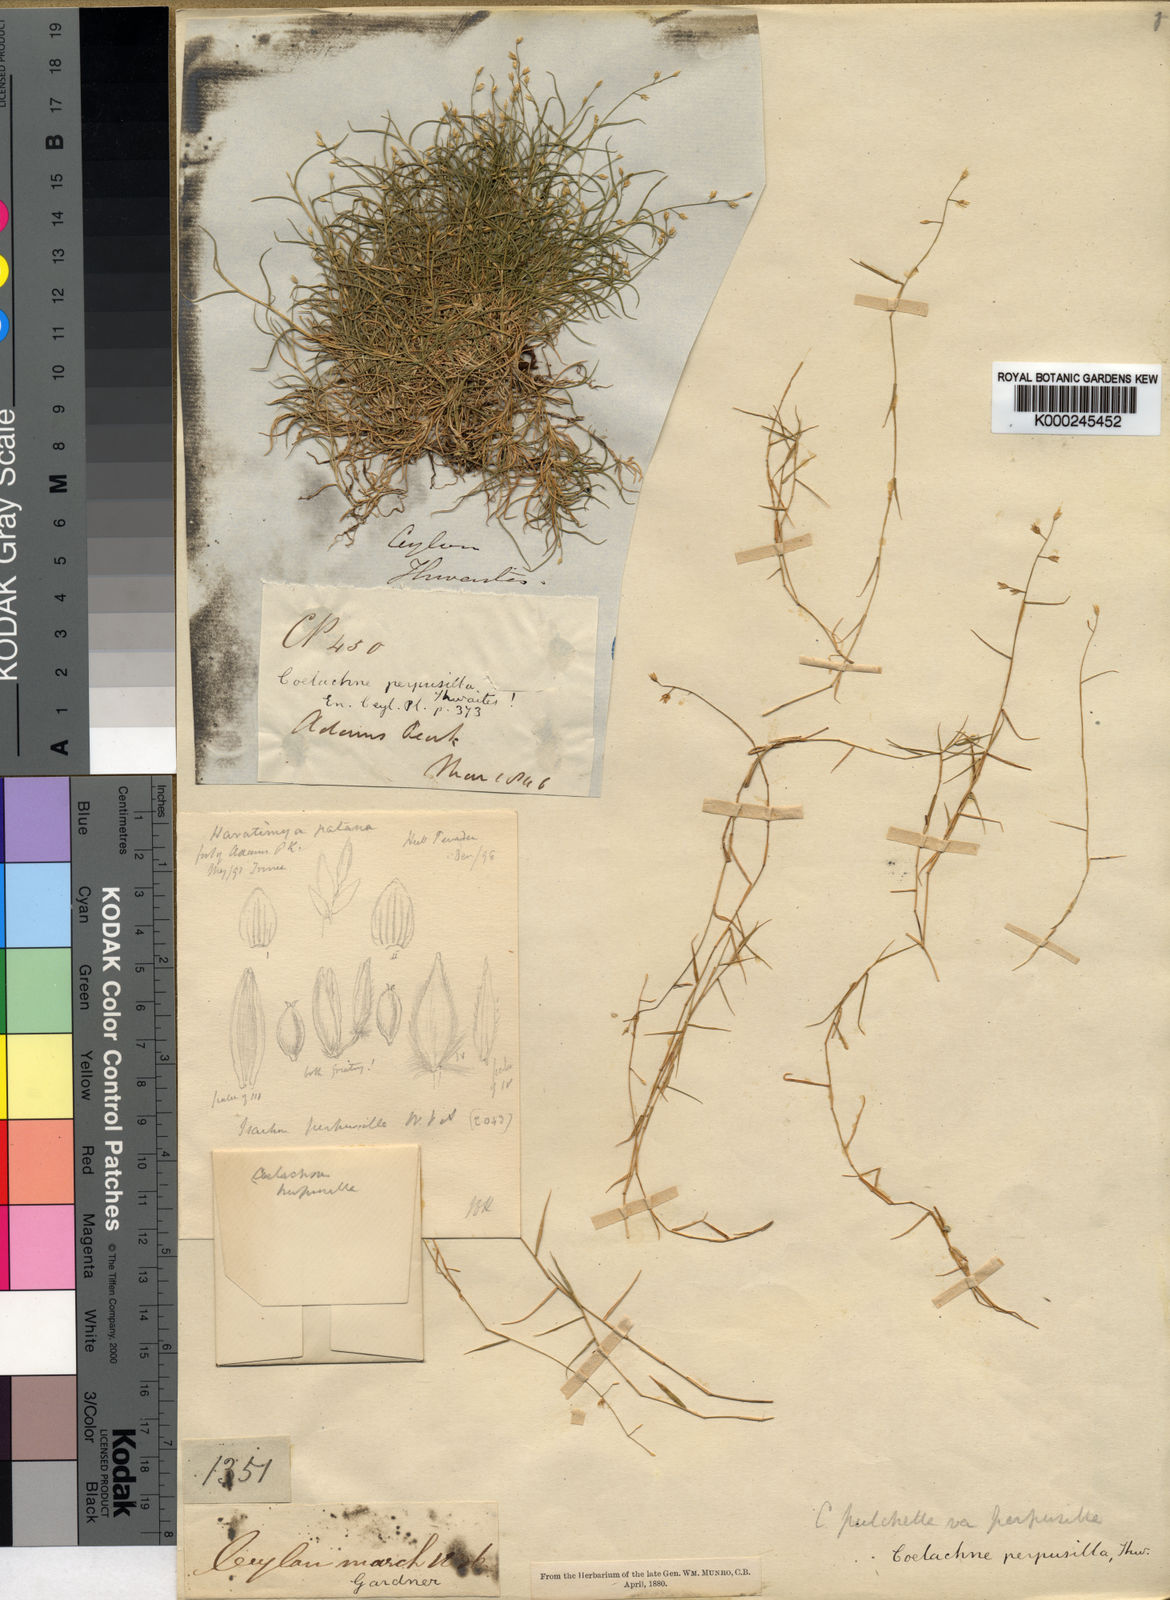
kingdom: Plantae
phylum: Tracheophyta
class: Liliopsida
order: Poales
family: Poaceae
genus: Coelachne
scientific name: Coelachne perpusilla
